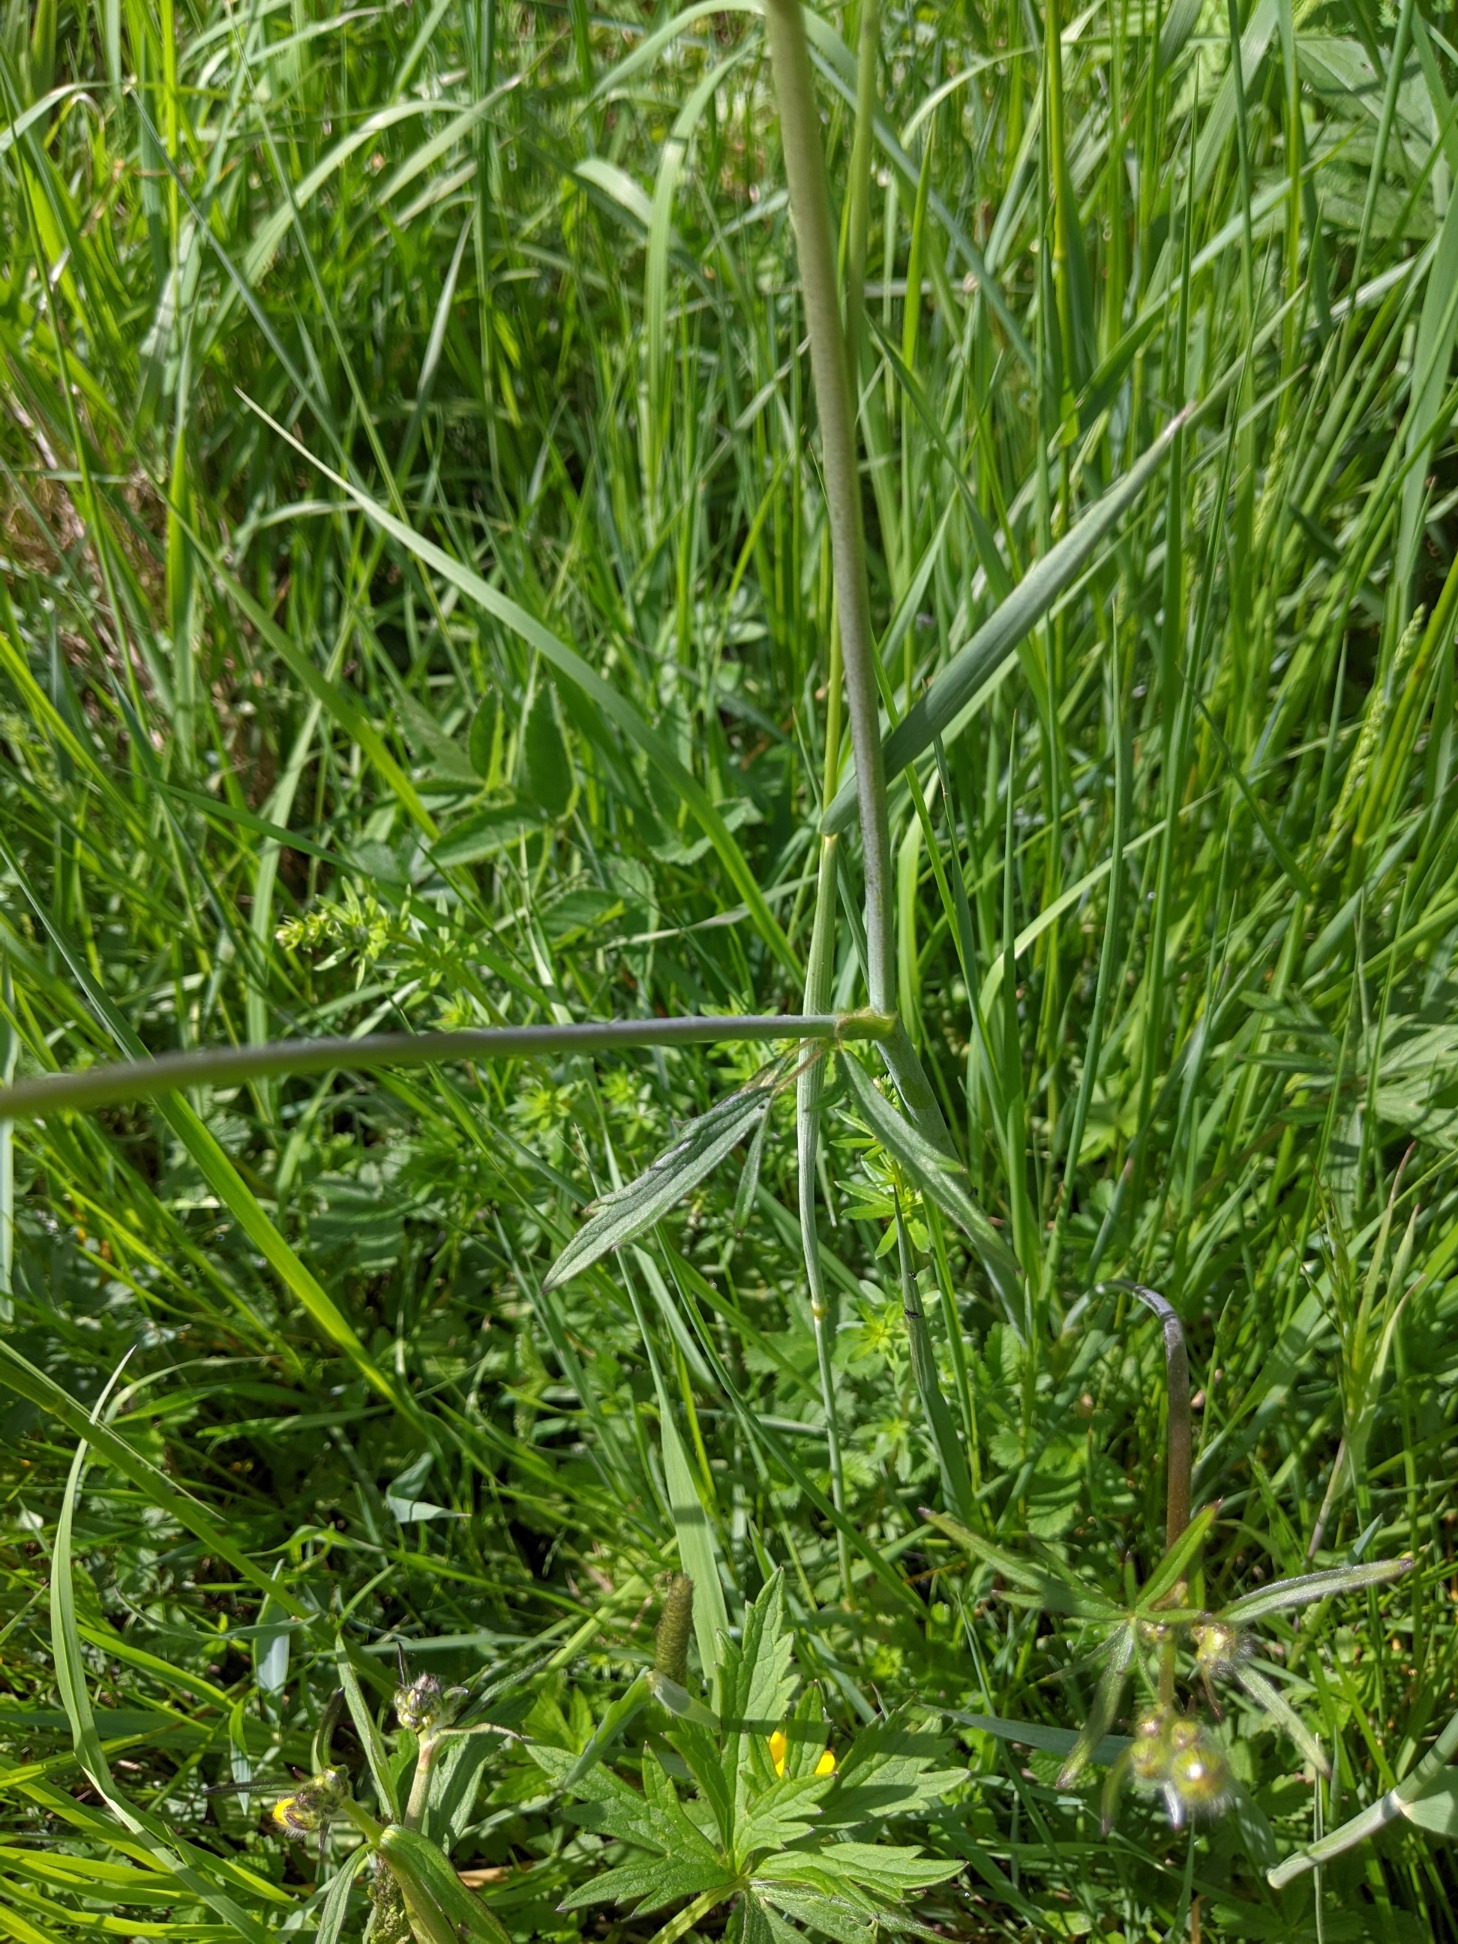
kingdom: Plantae
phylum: Tracheophyta
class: Magnoliopsida
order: Ranunculales
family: Ranunculaceae
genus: Ranunculus
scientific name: Ranunculus acris
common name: Bidende ranunkel
